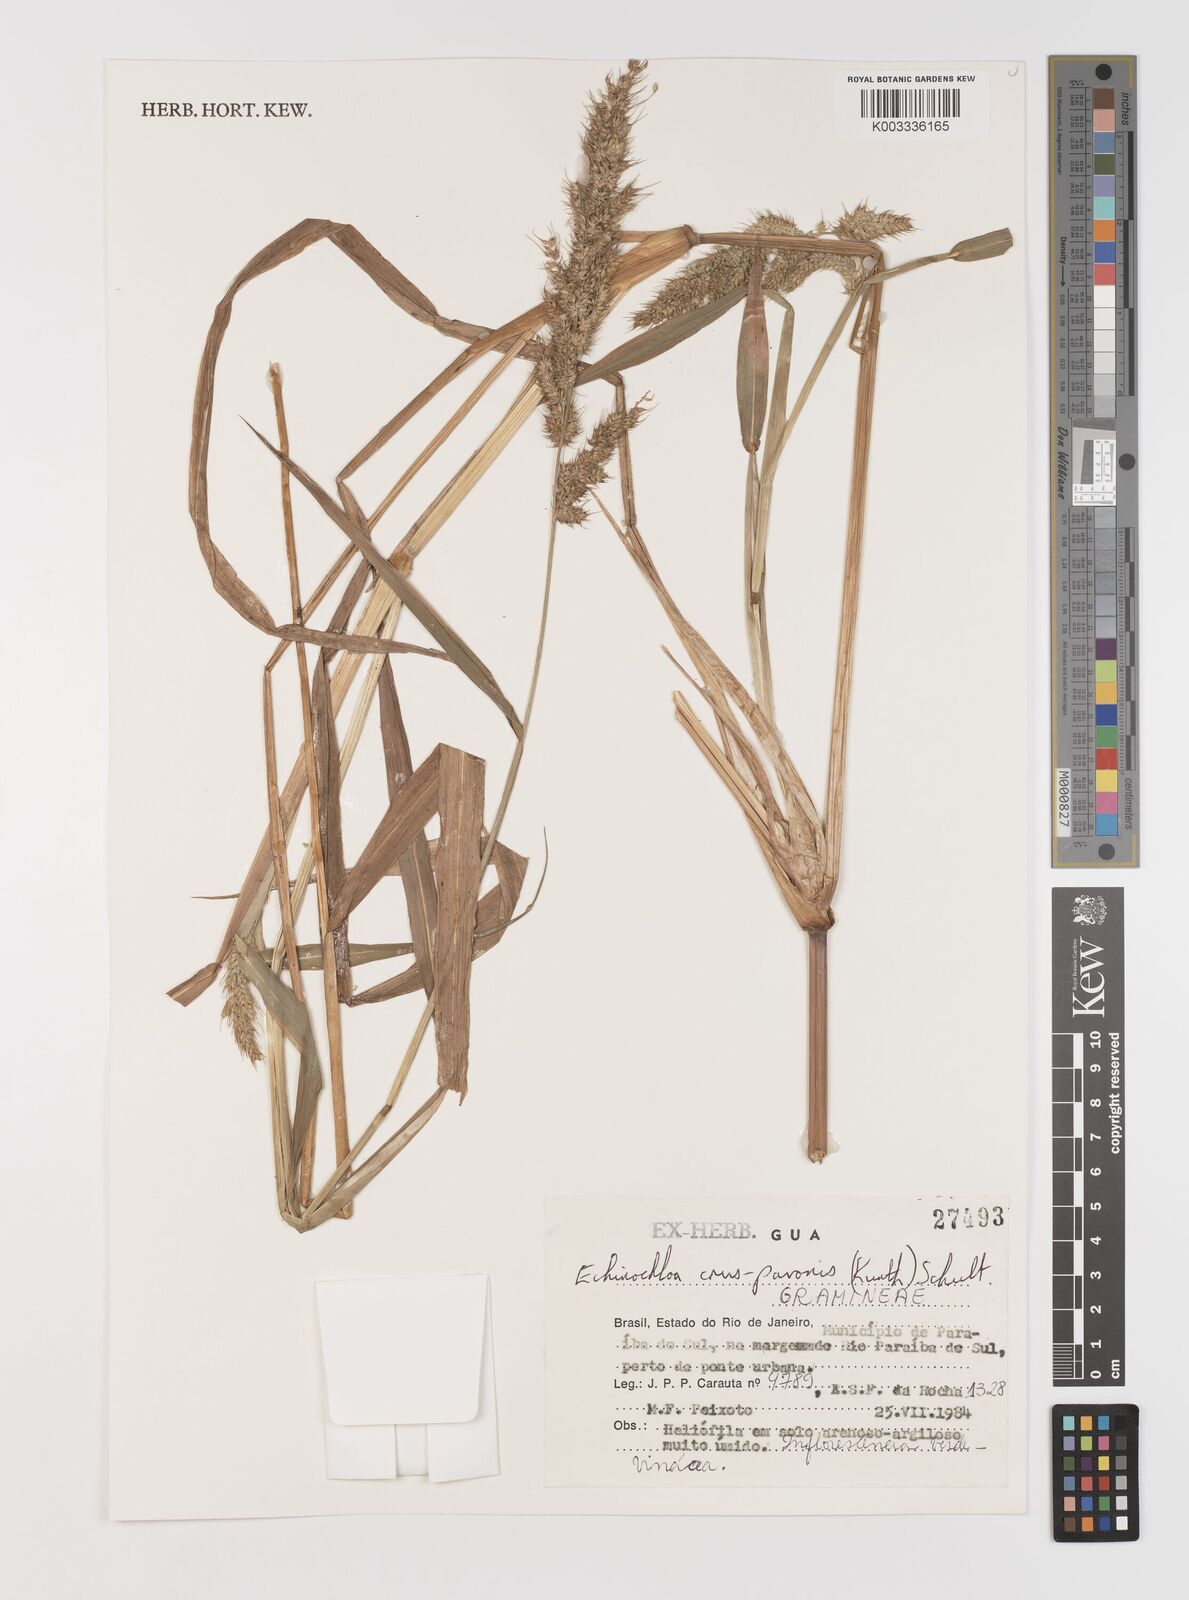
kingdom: Plantae
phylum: Tracheophyta
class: Liliopsida
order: Poales
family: Poaceae
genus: Echinochloa
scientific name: Echinochloa crus-pavonis
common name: Gulf cockspur grass
